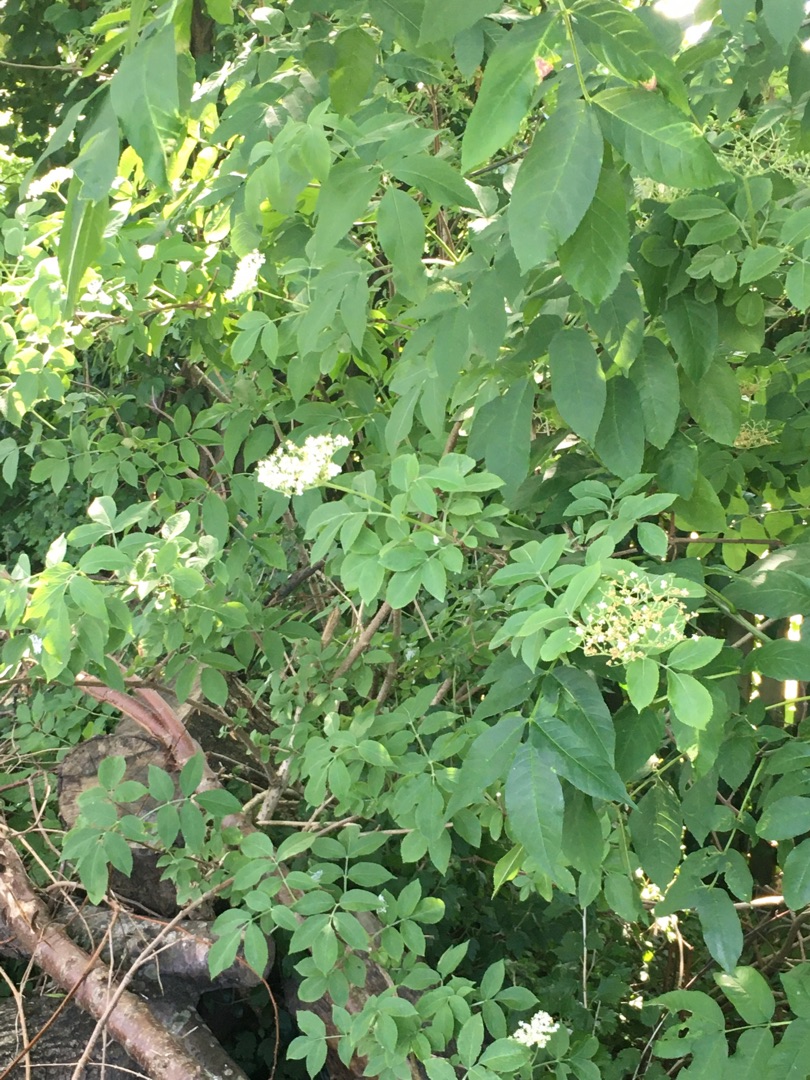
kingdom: Plantae
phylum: Tracheophyta
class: Magnoliopsida
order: Dipsacales
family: Viburnaceae
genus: Sambucus
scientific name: Sambucus nigra
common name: Almindelig hyld
